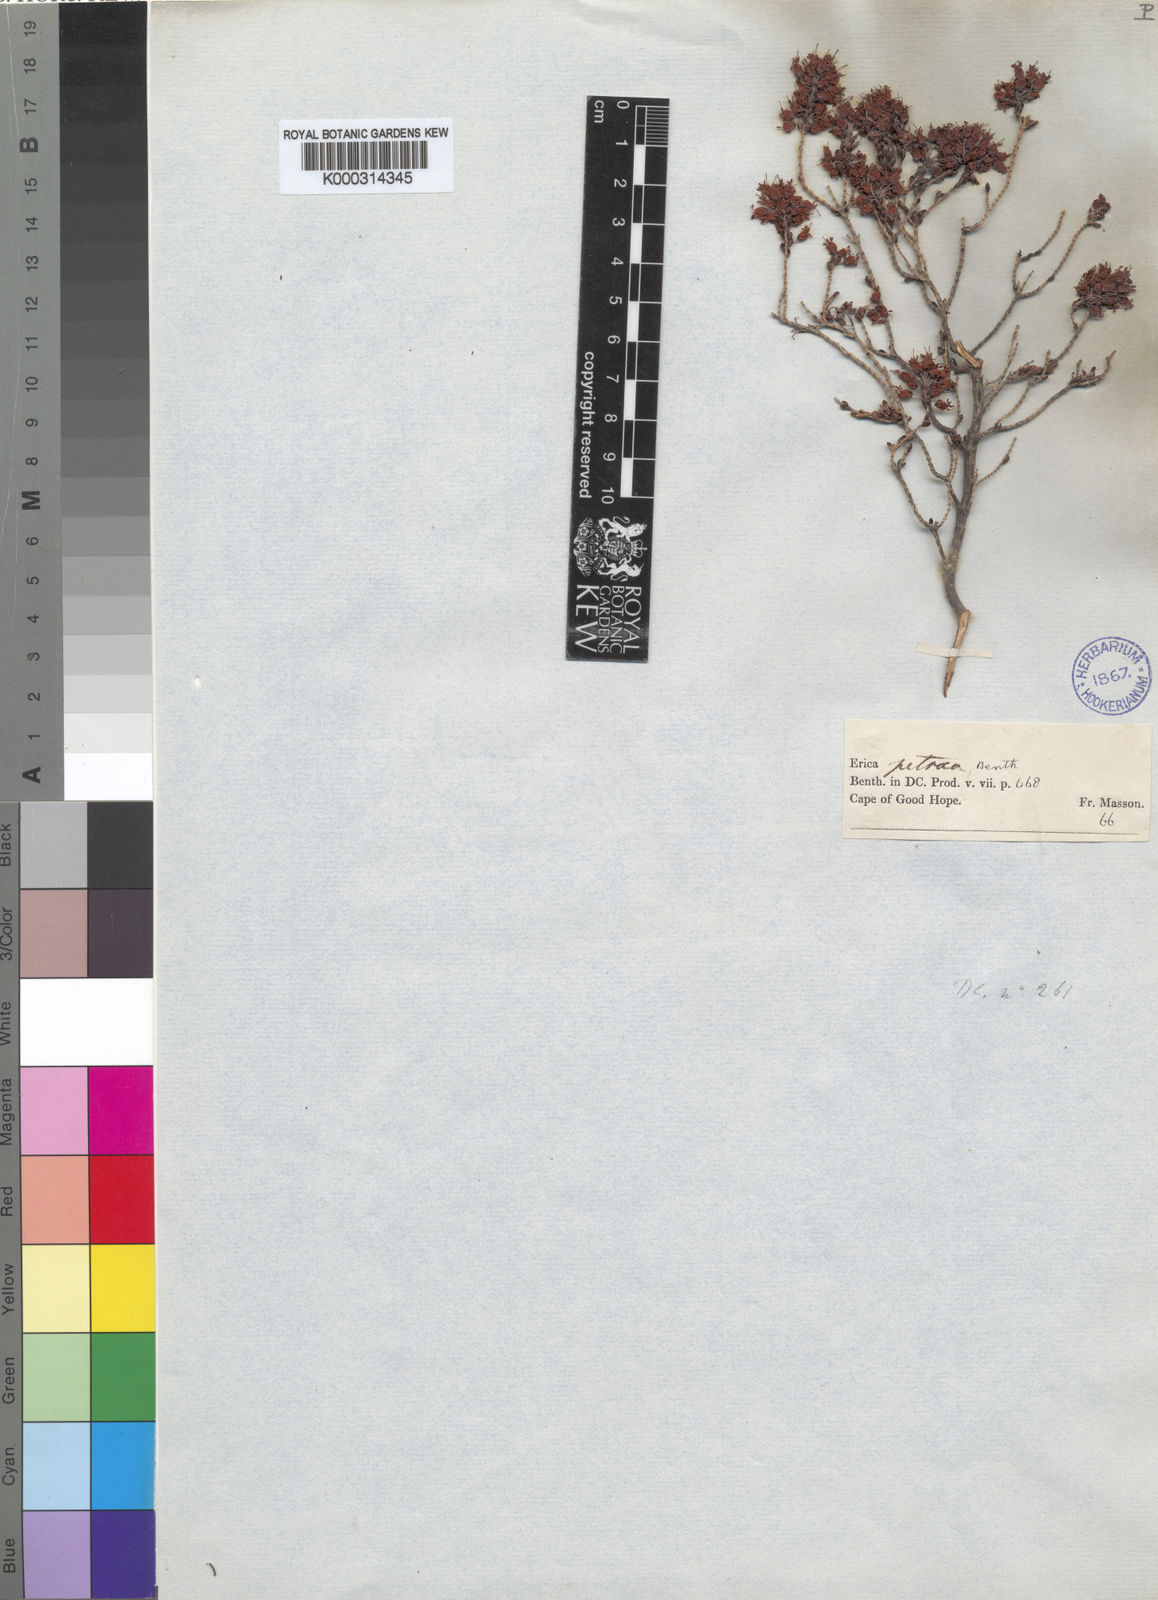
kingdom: Plantae
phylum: Tracheophyta
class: Magnoliopsida
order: Ericales
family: Ericaceae
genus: Erica
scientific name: Erica petraea
